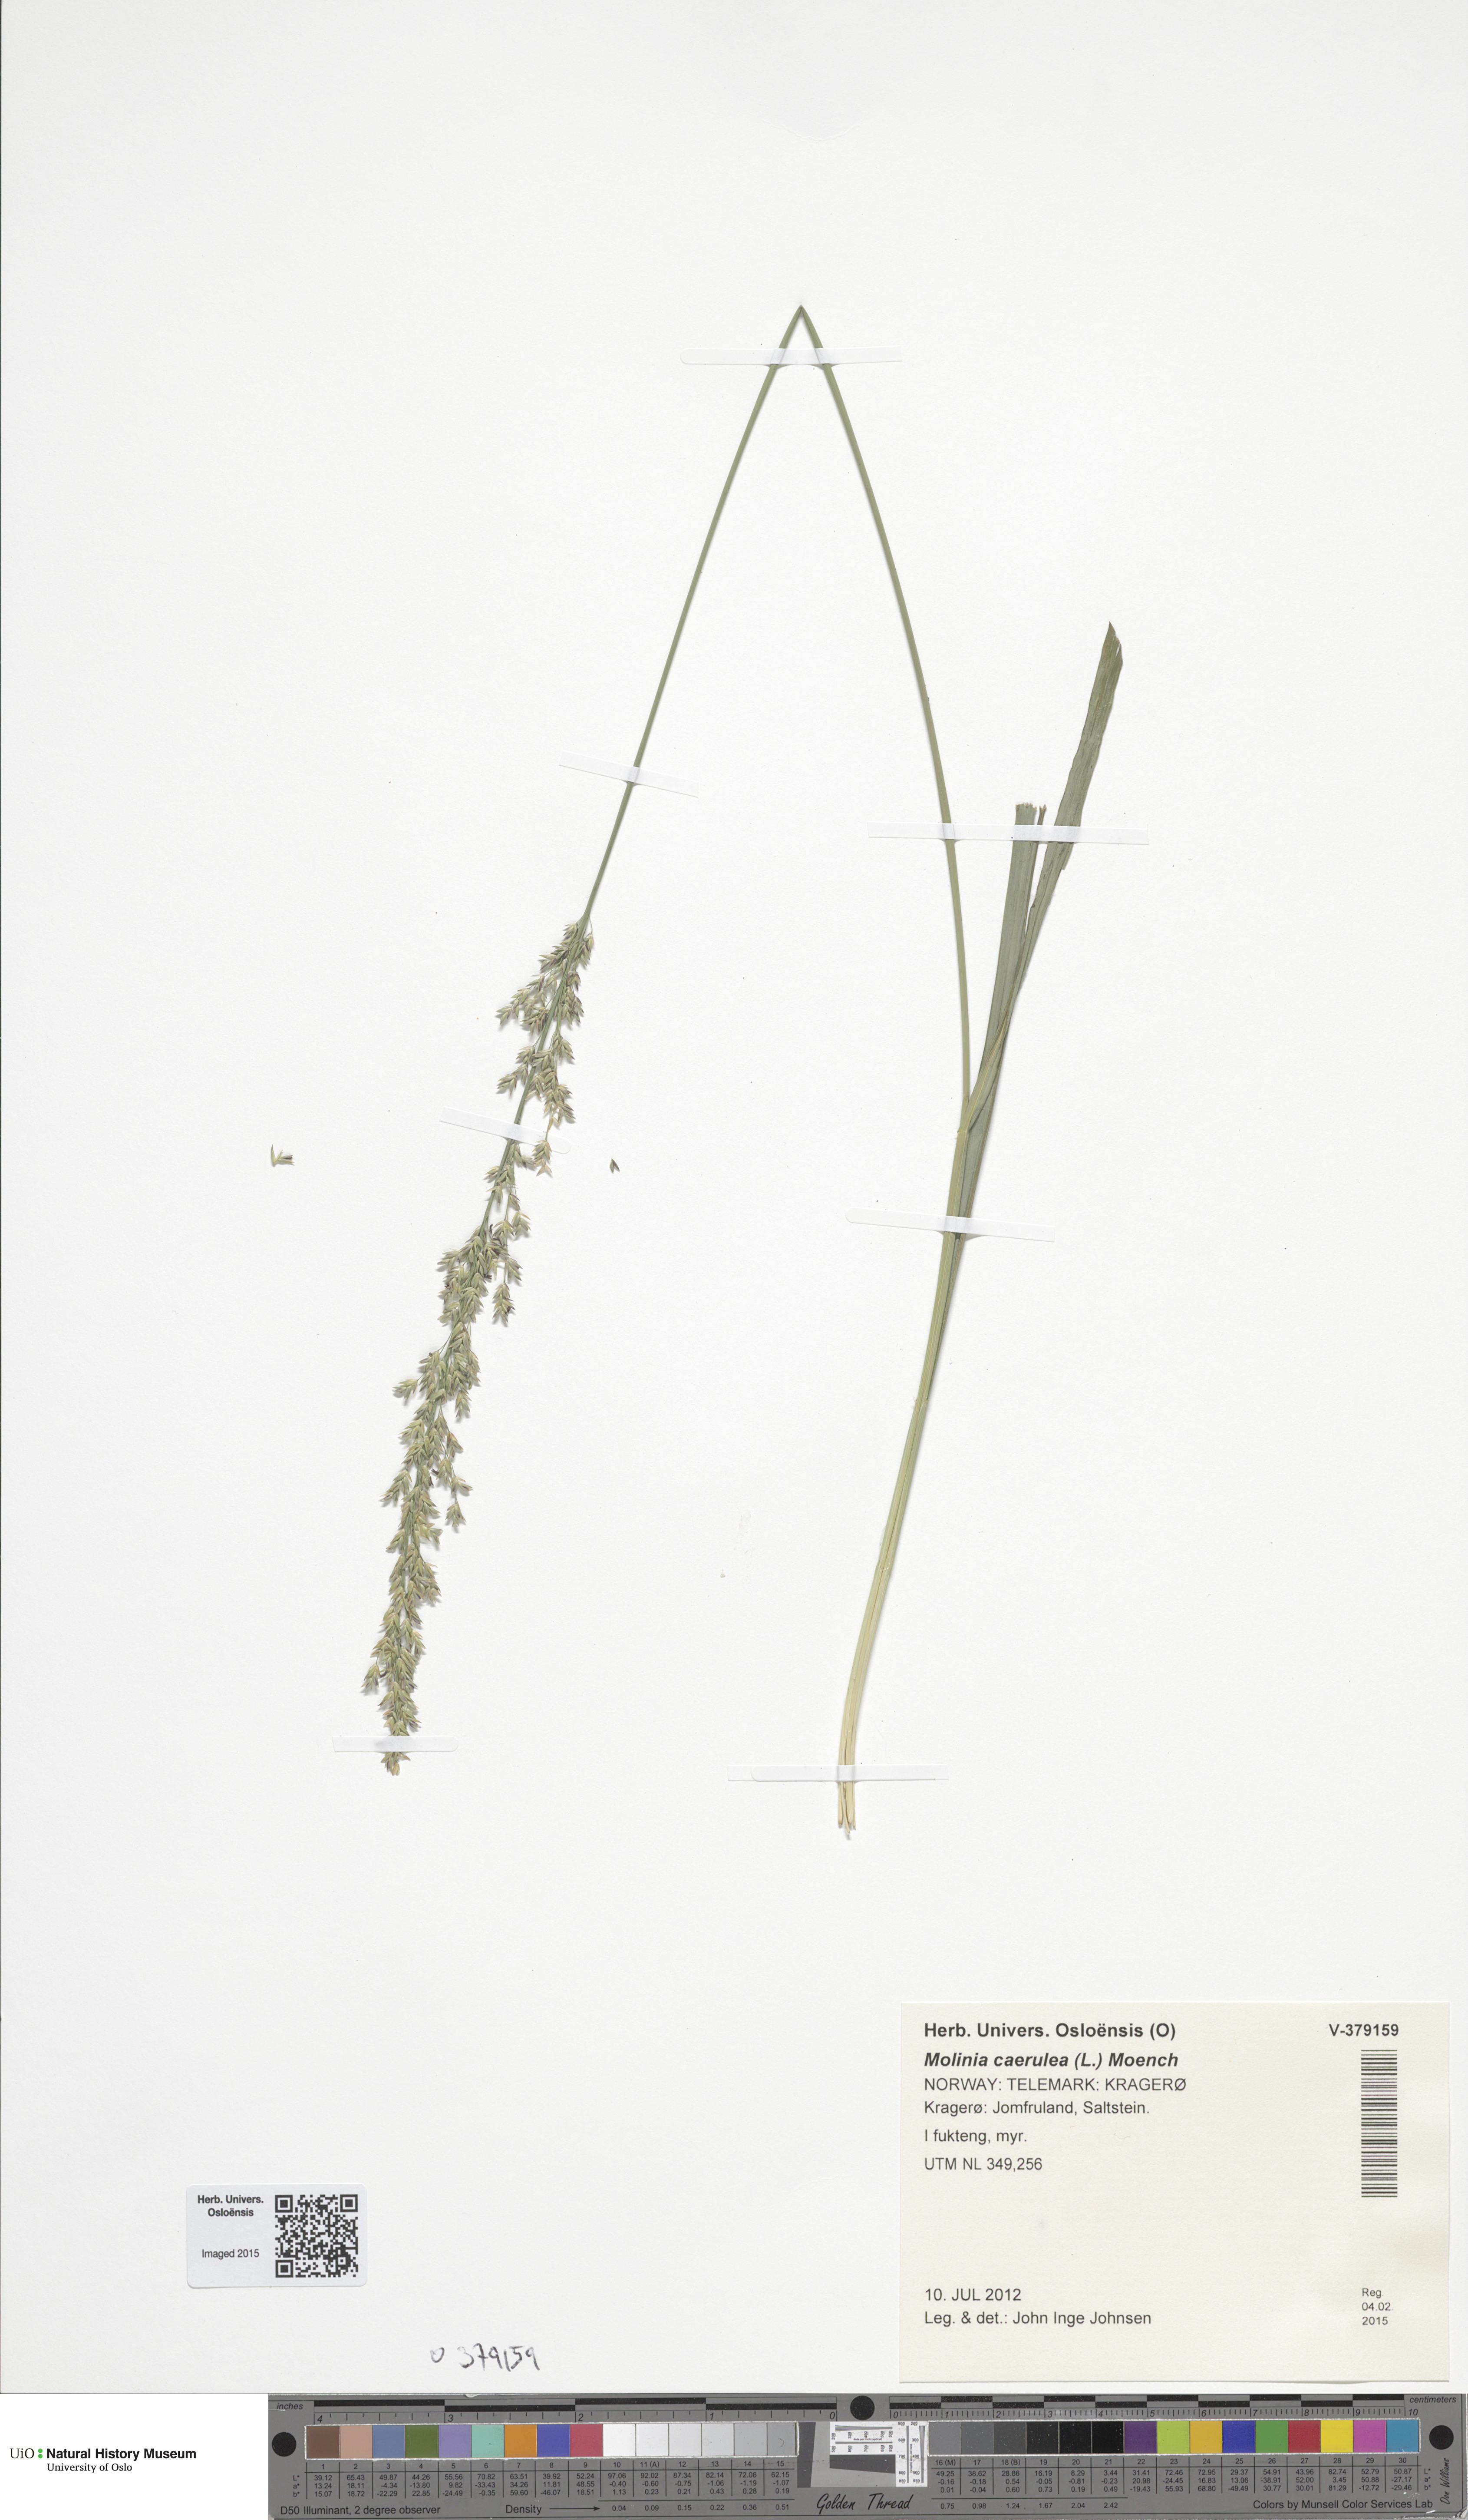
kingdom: Plantae
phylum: Tracheophyta
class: Liliopsida
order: Poales
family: Poaceae
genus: Molinia
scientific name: Molinia caerulea
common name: Purple moor-grass
